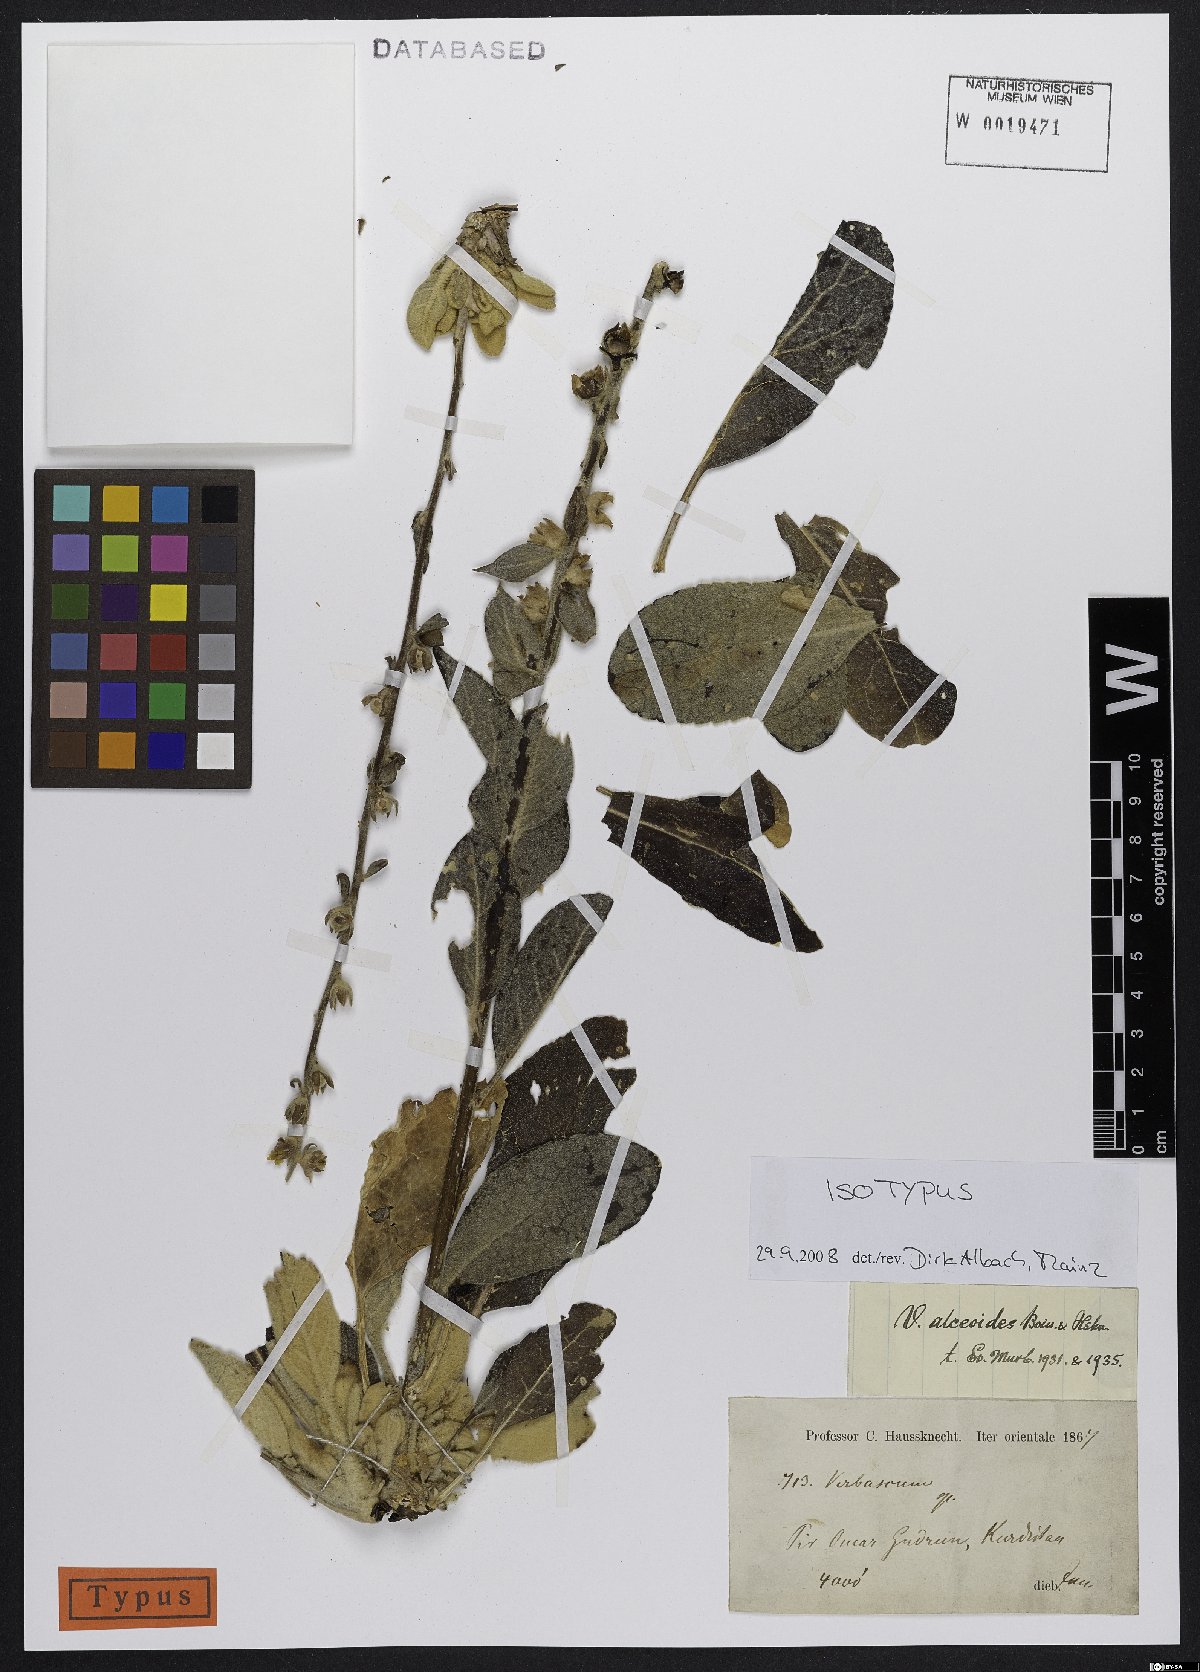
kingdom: Plantae
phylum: Tracheophyta
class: Magnoliopsida
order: Lamiales
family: Scrophulariaceae
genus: Verbascum
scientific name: Verbascum alceoides
